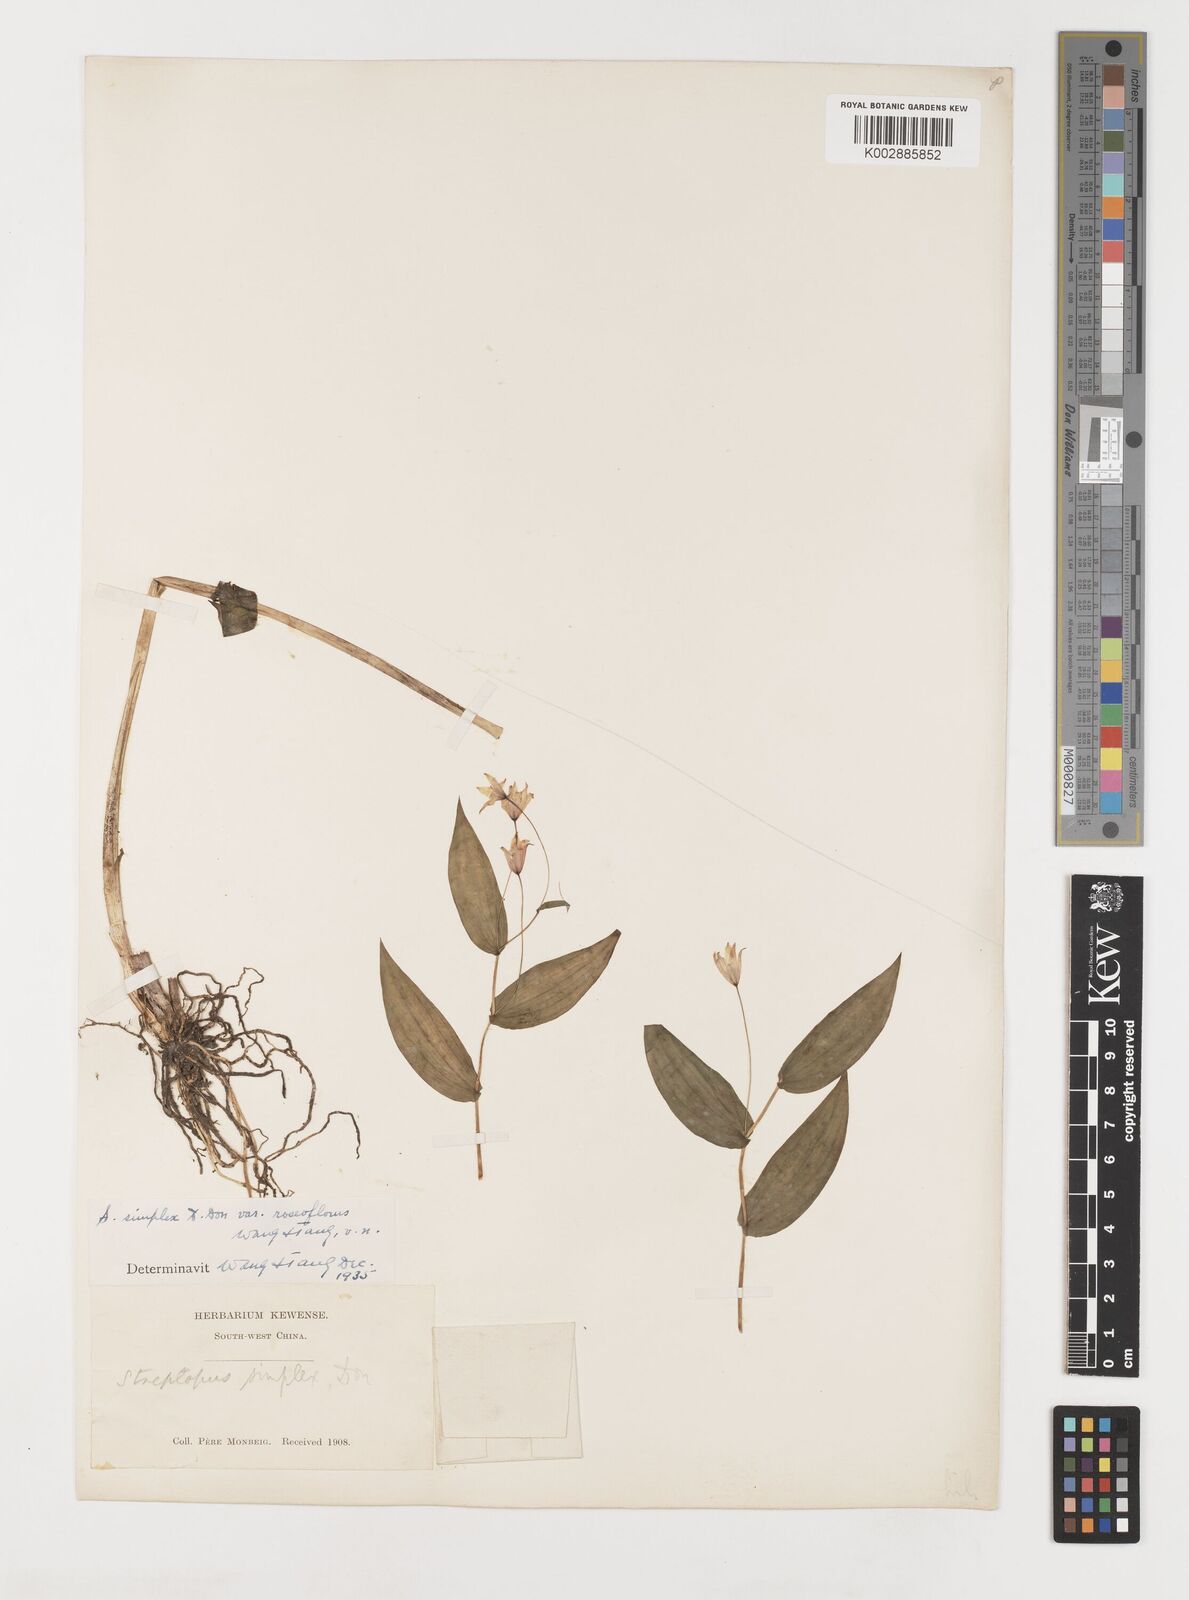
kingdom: Plantae
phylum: Tracheophyta
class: Liliopsida
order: Liliales
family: Liliaceae
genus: Streptopus
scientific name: Streptopus simplex
